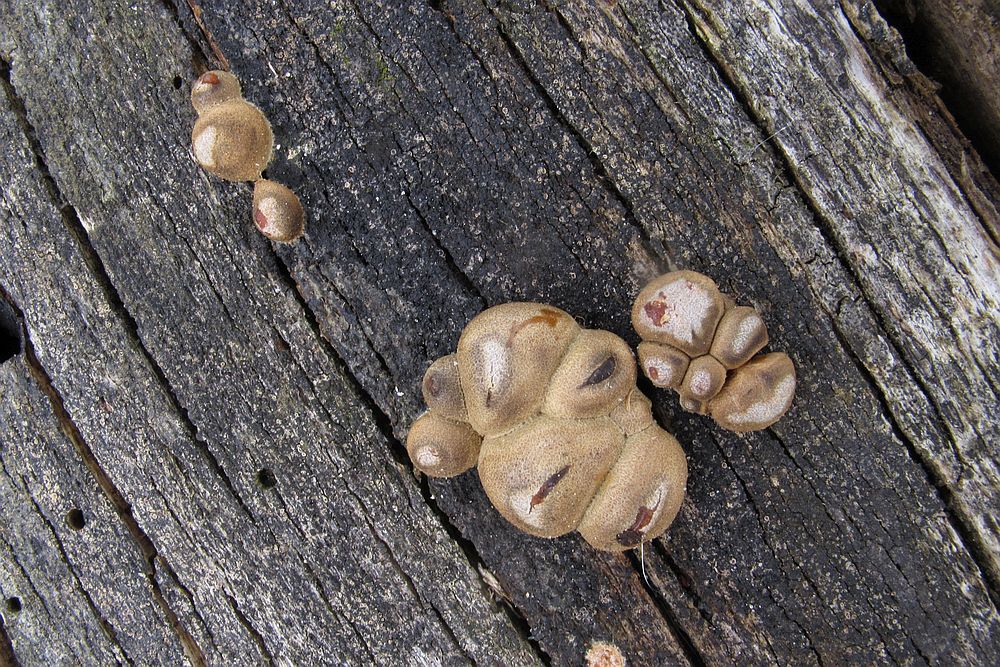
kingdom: Protozoa
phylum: Mycetozoa
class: Myxomycetes
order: Cribrariales
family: Tubiferaceae
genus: Lycogala
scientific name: Lycogala epidendrum
